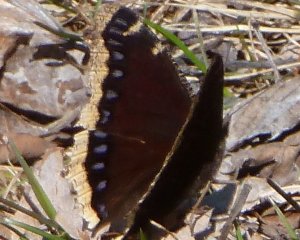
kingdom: Animalia
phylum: Arthropoda
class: Insecta
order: Lepidoptera
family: Nymphalidae
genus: Nymphalis
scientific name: Nymphalis antiopa
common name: Mourning Cloak
